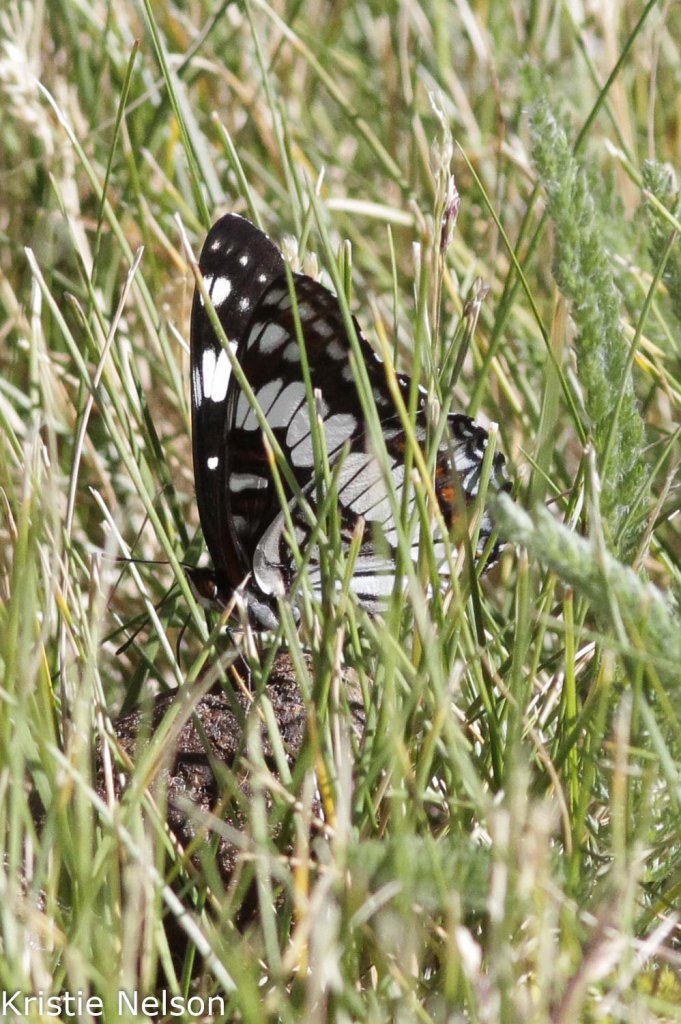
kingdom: Animalia
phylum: Arthropoda
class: Insecta
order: Lepidoptera
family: Nymphalidae
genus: Limenitis
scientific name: Limenitis weidemeyerii
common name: Weidemeyer's Admiral
